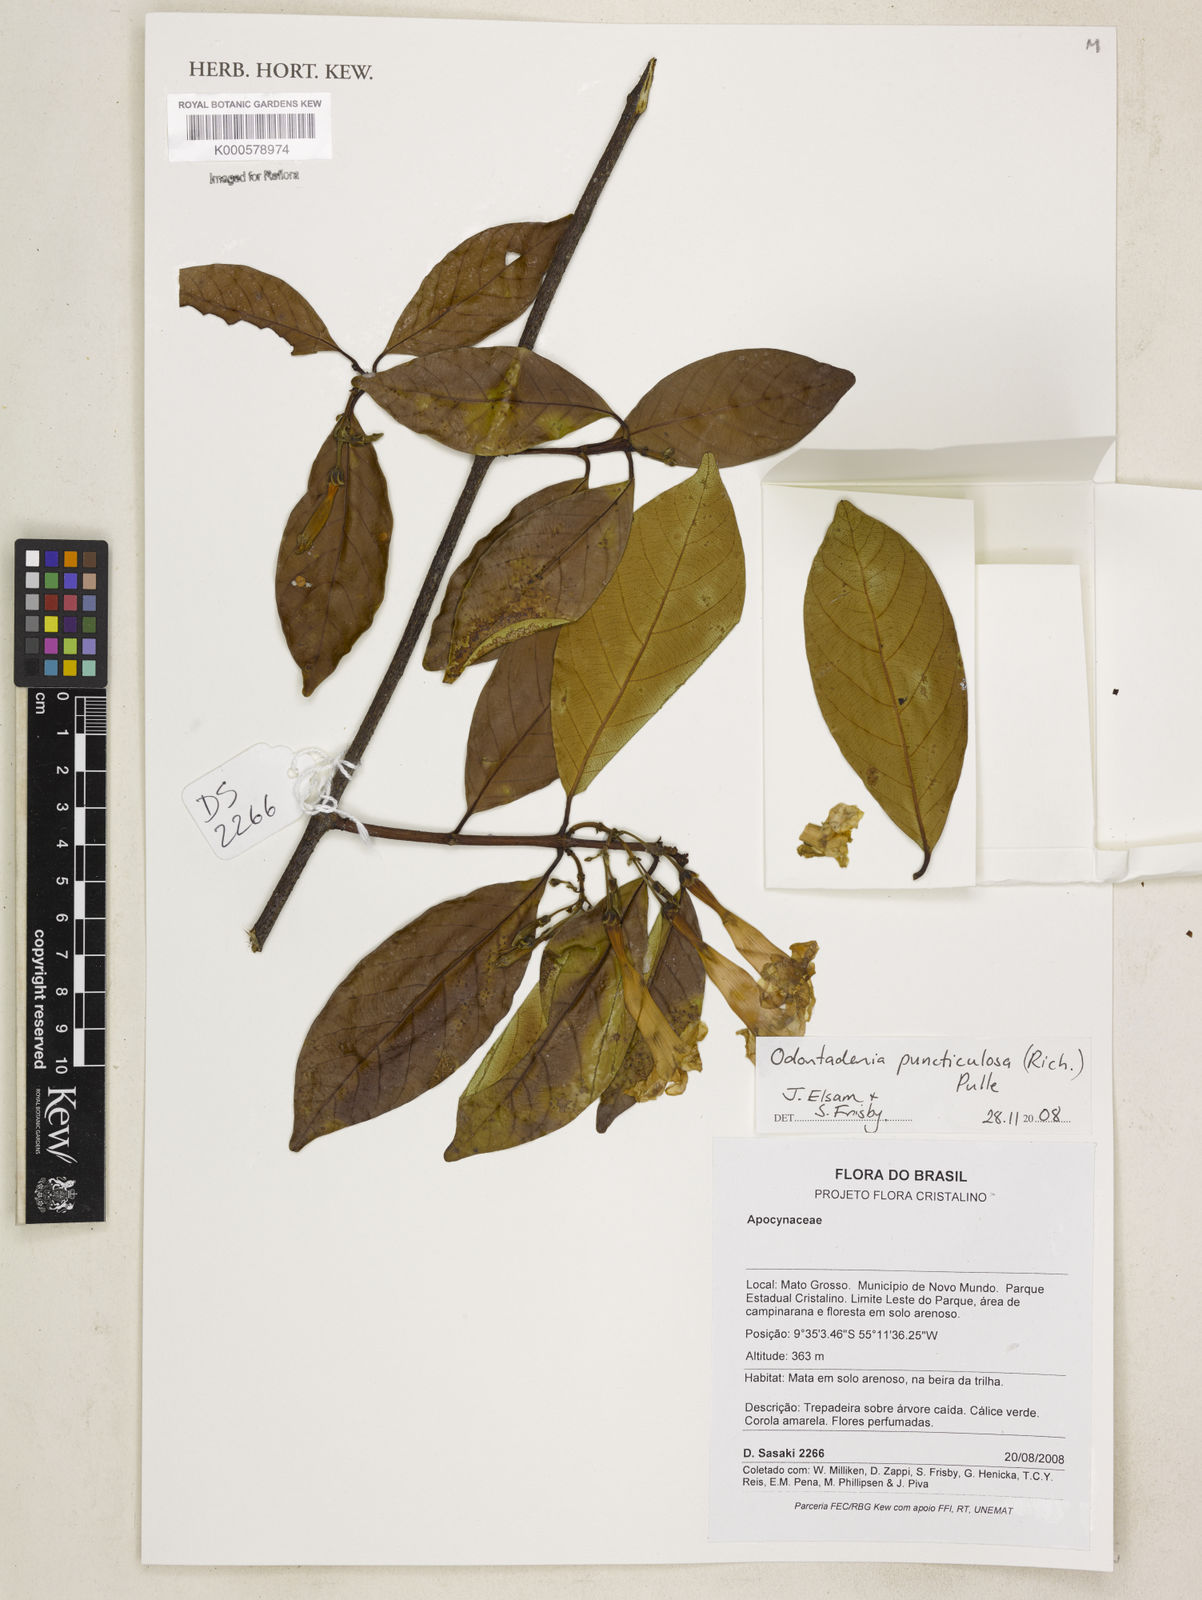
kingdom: Plantae
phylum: Tracheophyta
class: Magnoliopsida
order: Gentianales
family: Apocynaceae
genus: Odontadenia
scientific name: Odontadenia puncticulosa
